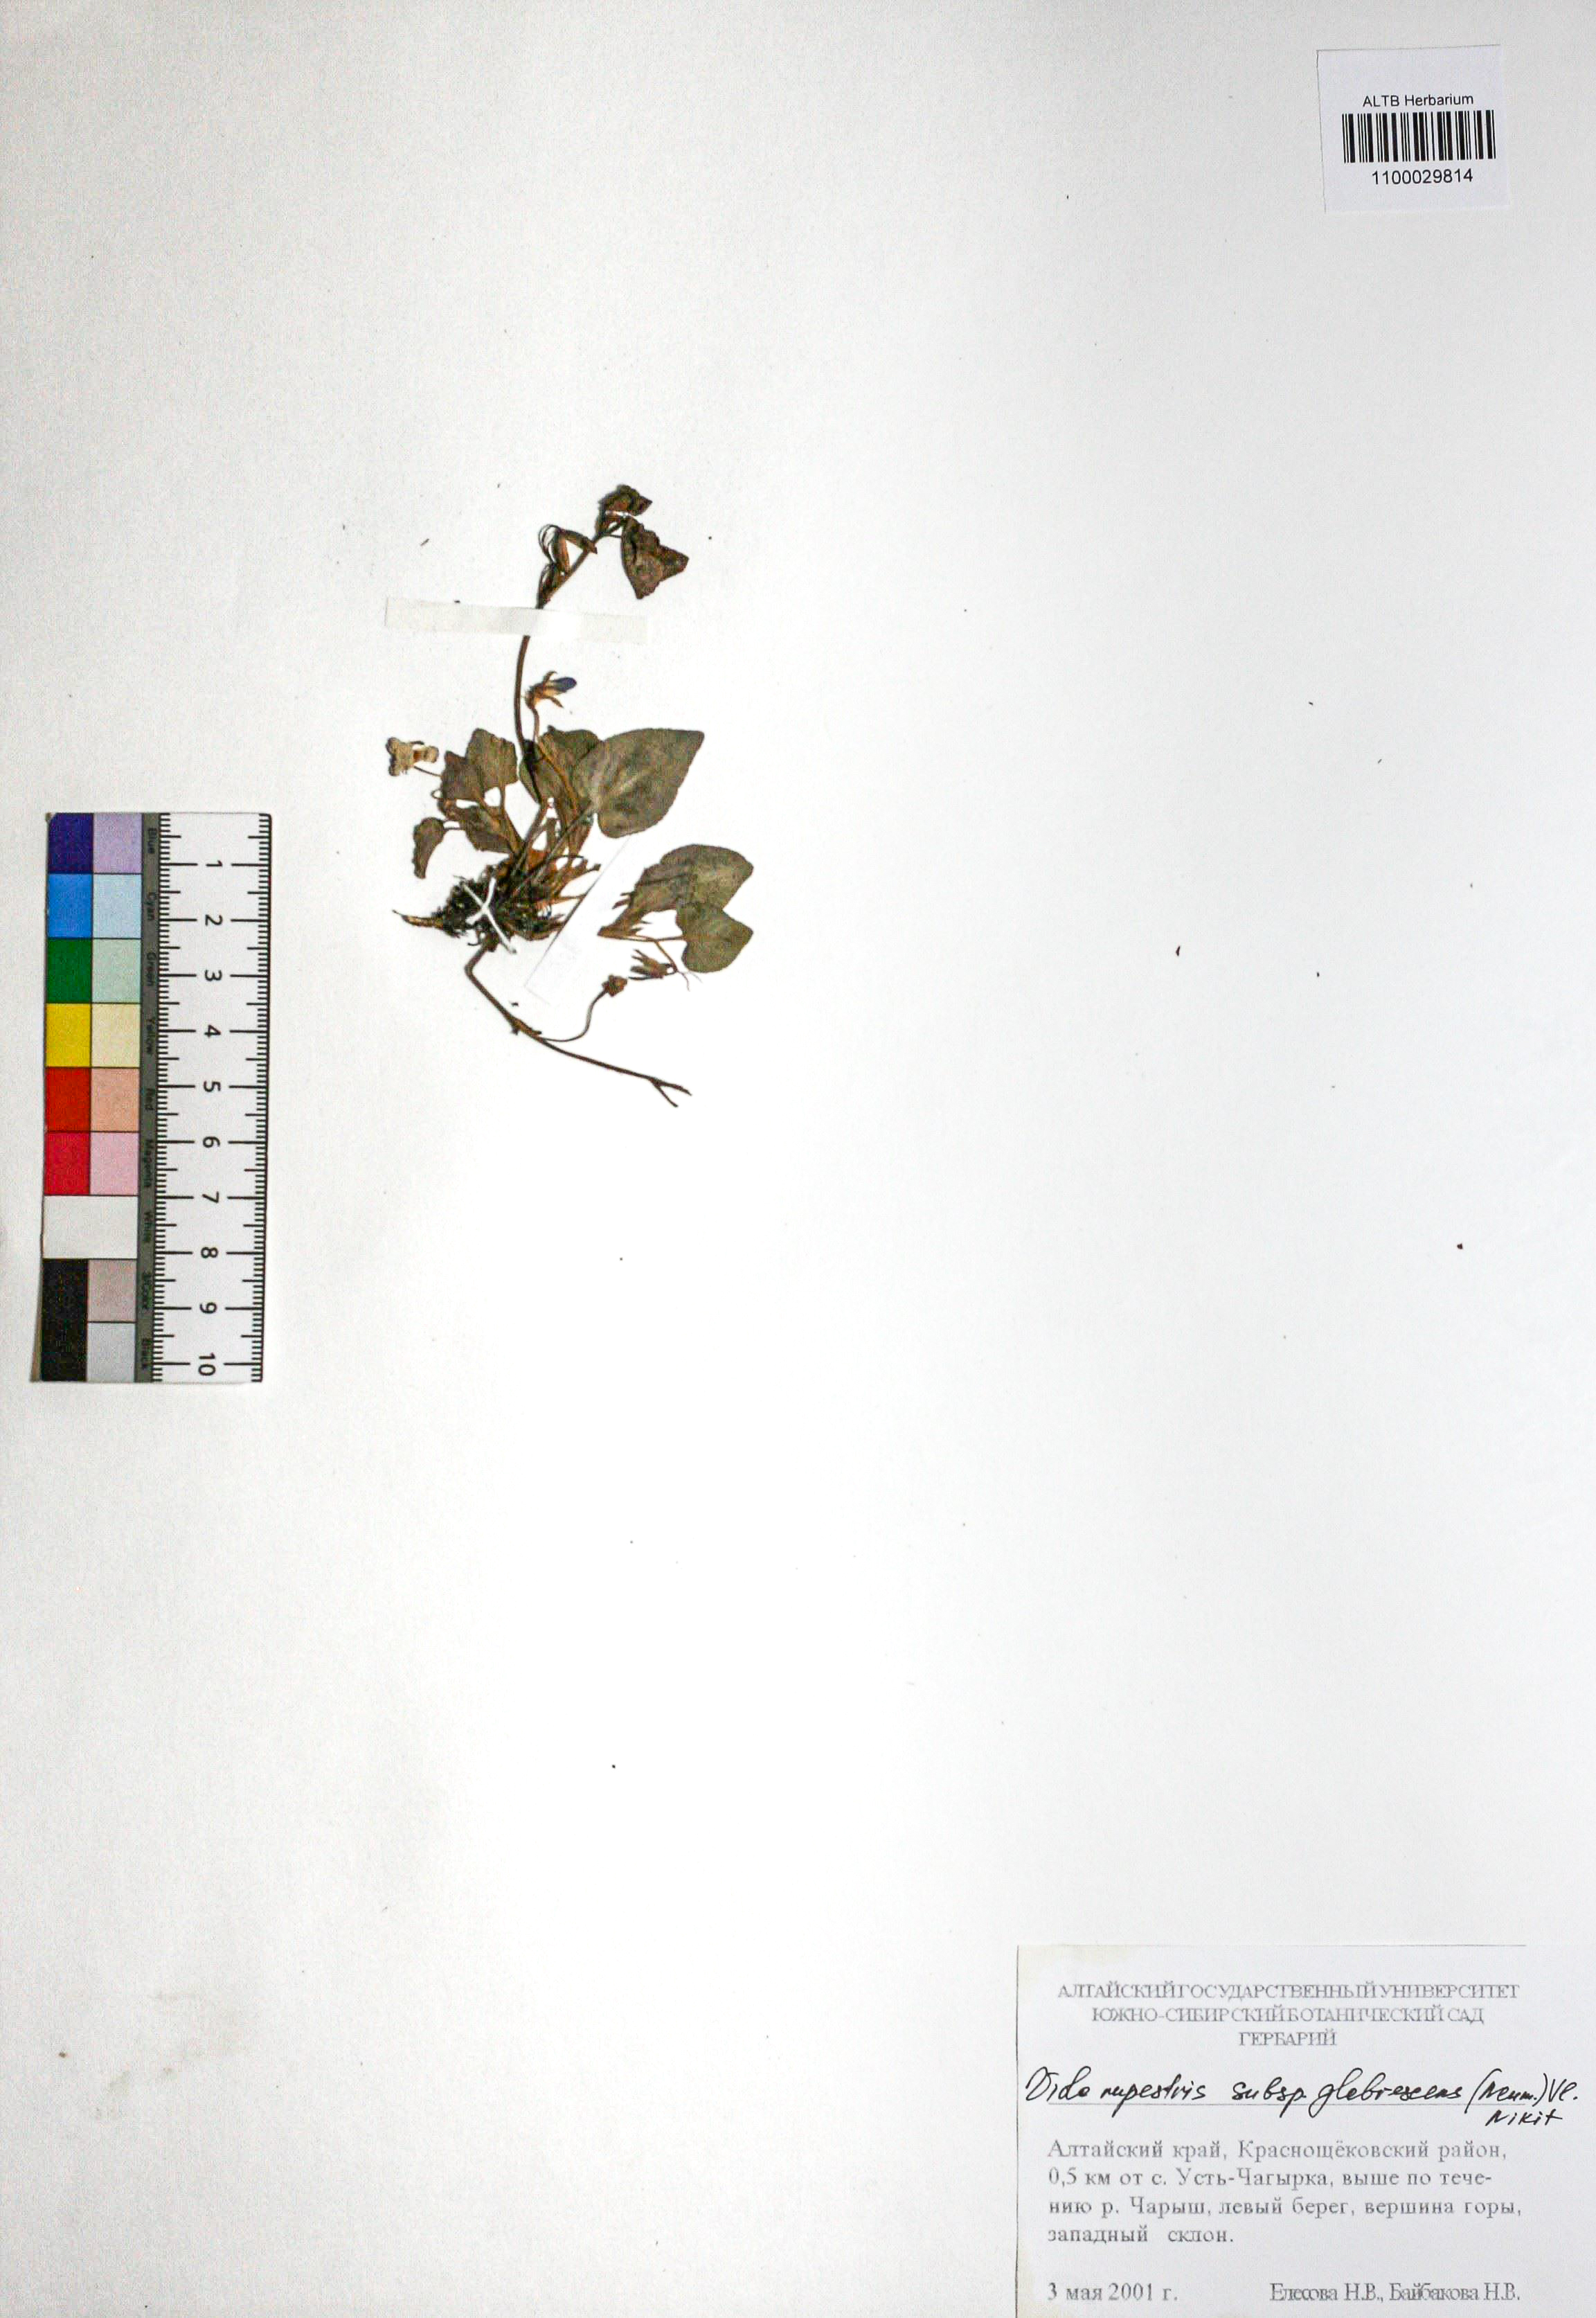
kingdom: Plantae
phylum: Tracheophyta
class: Magnoliopsida
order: Malpighiales
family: Violaceae
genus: Viola
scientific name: Viola rupestris
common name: Teesdale violet
